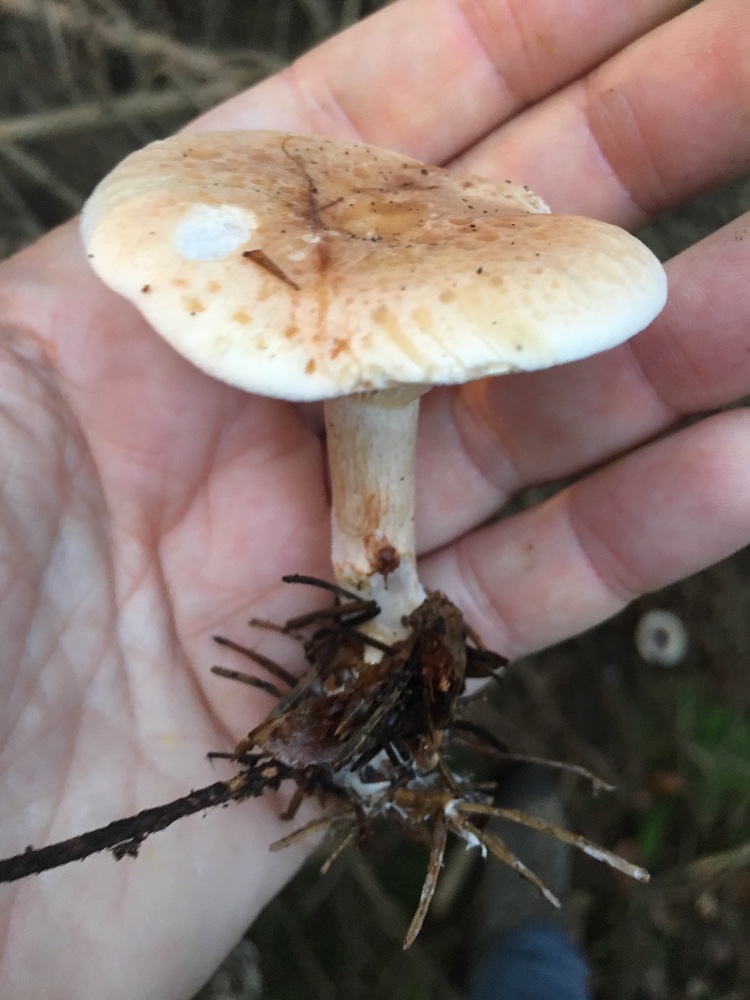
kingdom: Fungi
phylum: Basidiomycota
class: Agaricomycetes
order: Agaricales
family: Tricholomataceae
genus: Paralepista
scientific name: Paralepista gilva
